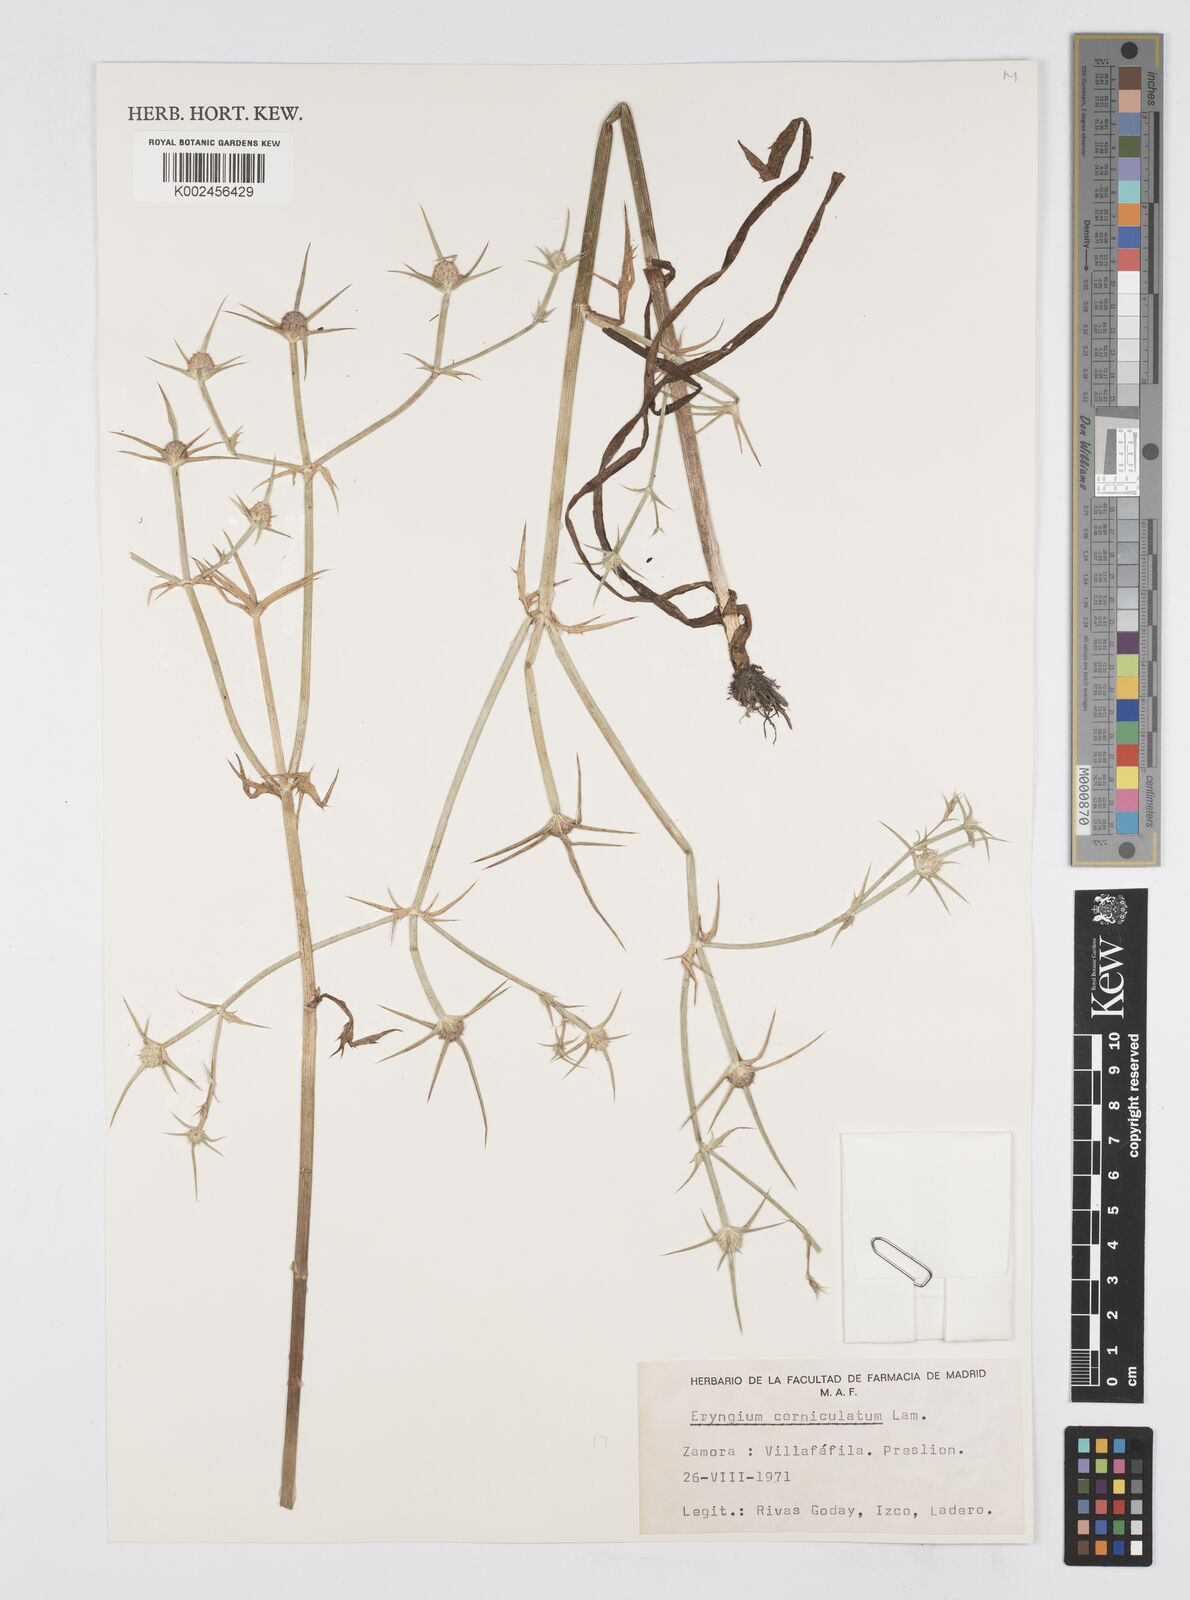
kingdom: Plantae
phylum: Tracheophyta
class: Magnoliopsida
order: Apiales
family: Apiaceae
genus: Eryngium
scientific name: Eryngium corniculatum
